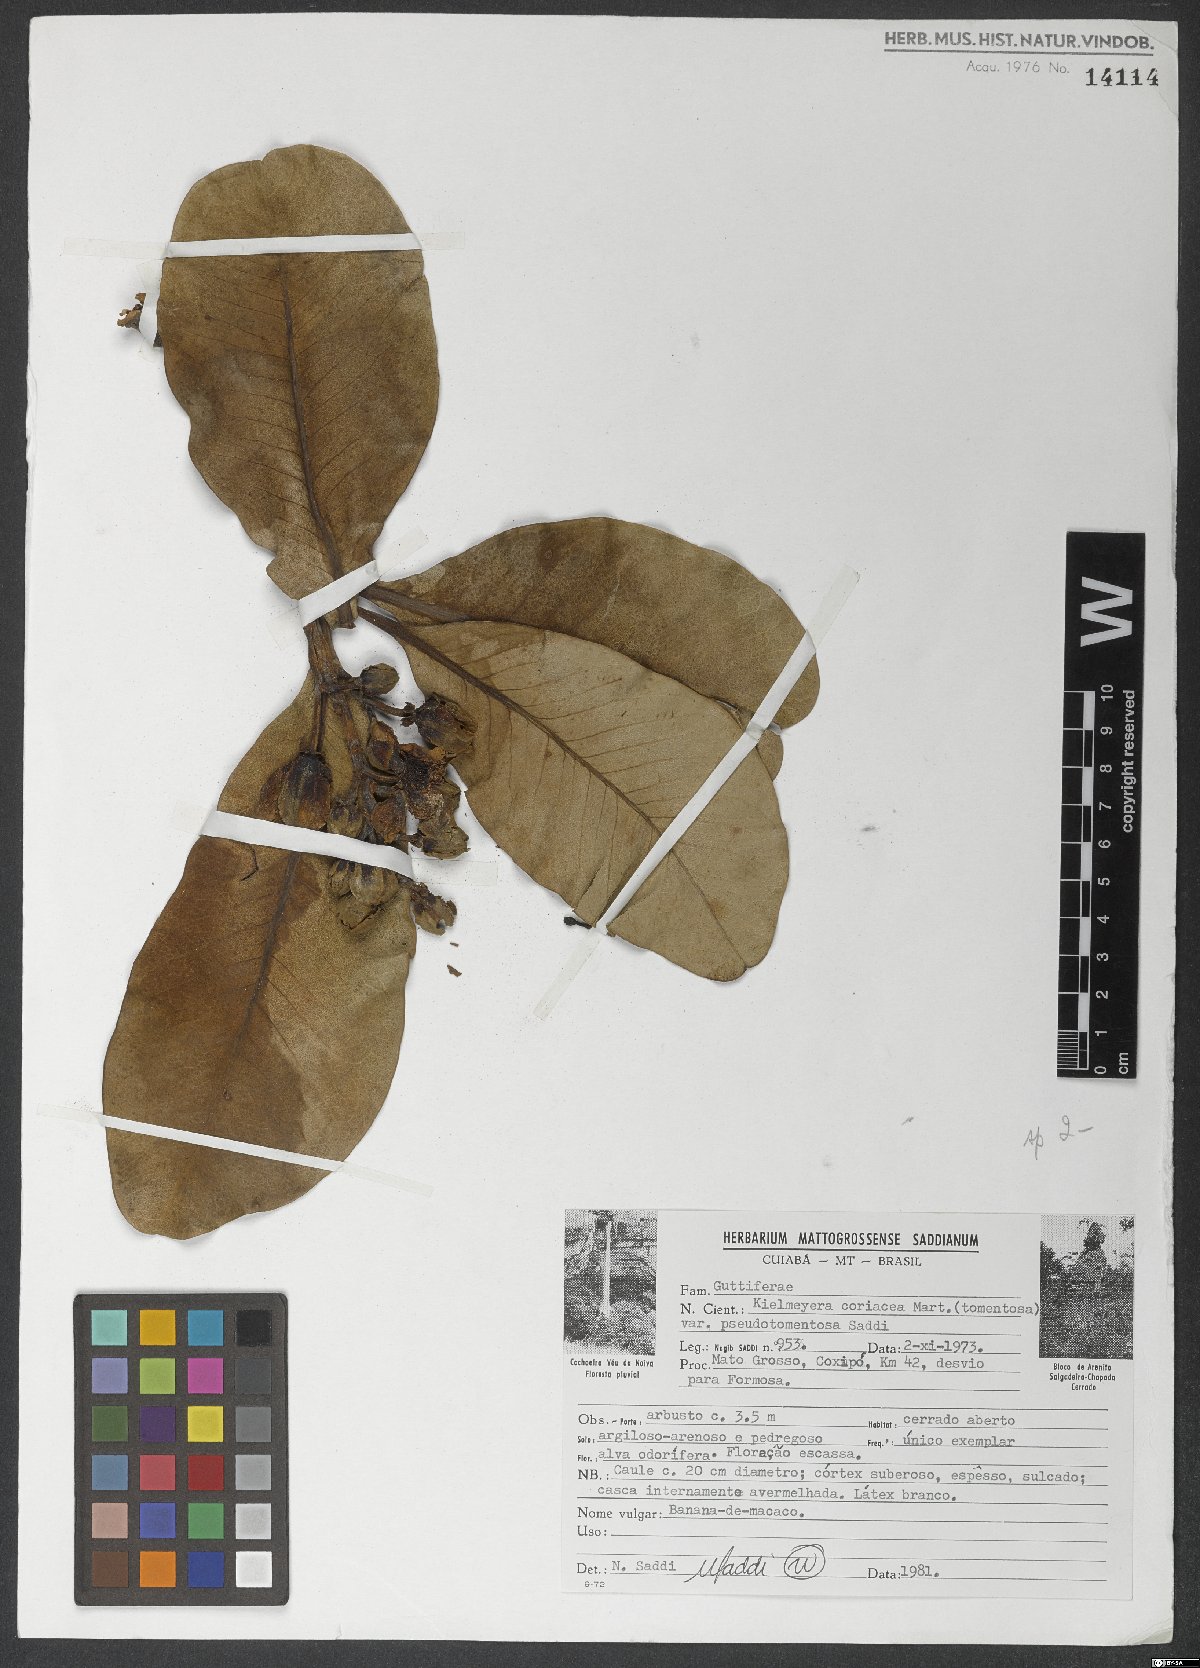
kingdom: Plantae
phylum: Tracheophyta
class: Magnoliopsida
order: Malpighiales
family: Calophyllaceae
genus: Kielmeyera
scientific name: Kielmeyera coriacea
